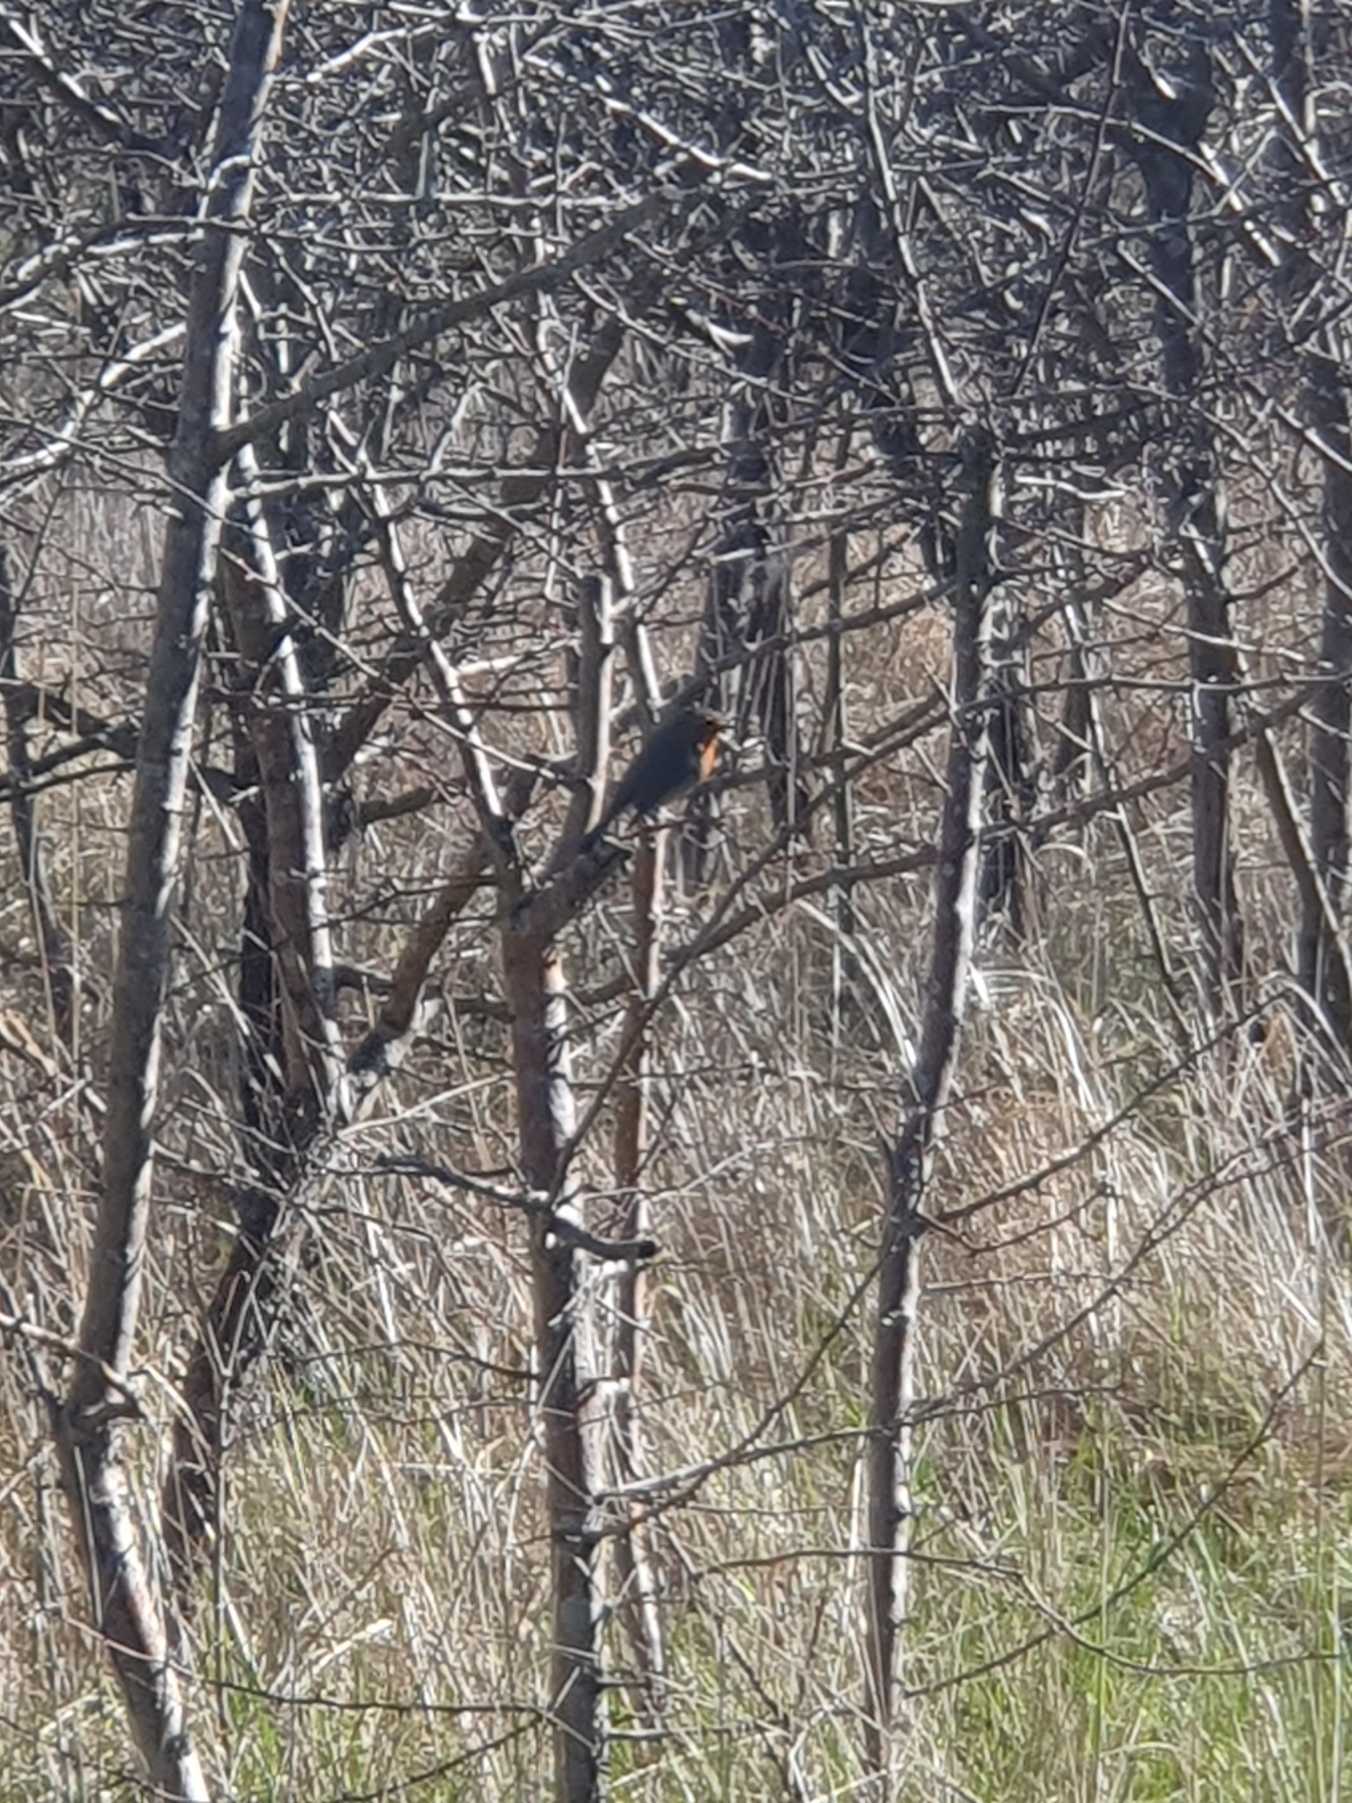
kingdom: Animalia
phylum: Chordata
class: Aves
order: Passeriformes
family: Muscicapidae
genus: Erithacus
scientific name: Erithacus rubecula
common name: Rødhals/rødkælk
